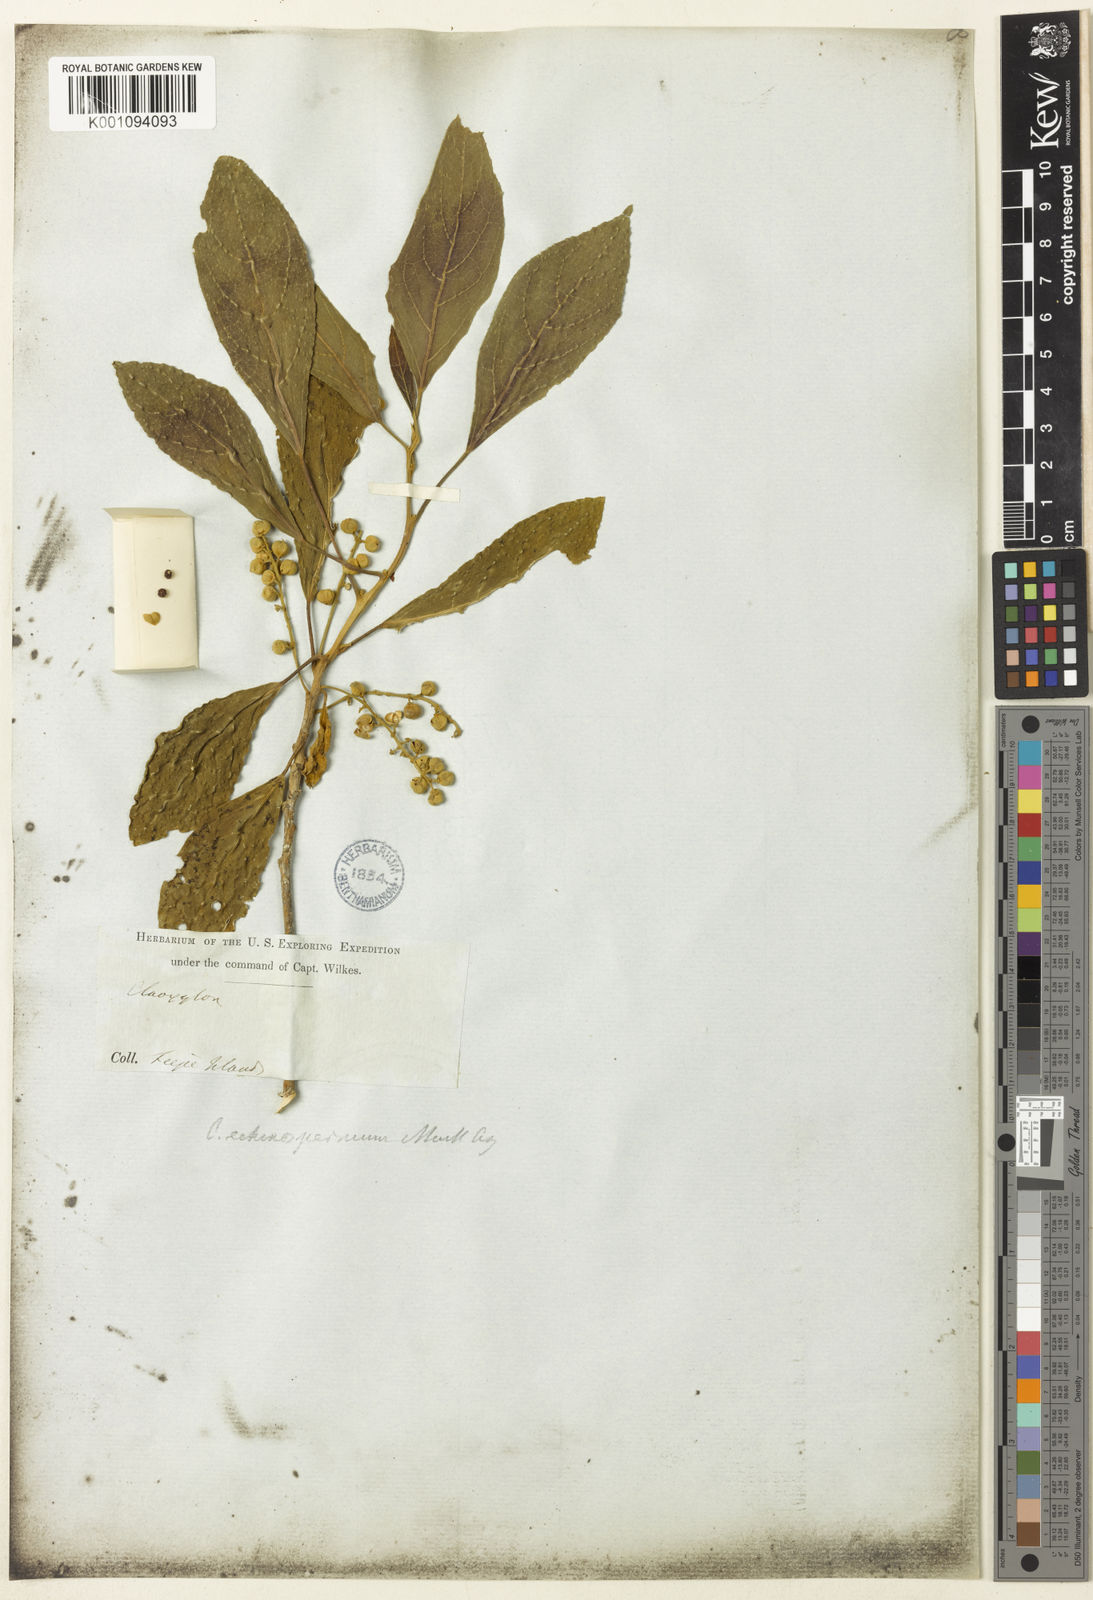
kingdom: Plantae
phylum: Tracheophyta
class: Magnoliopsida
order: Malpighiales
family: Euphorbiaceae
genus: Claoxylon
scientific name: Claoxylon
